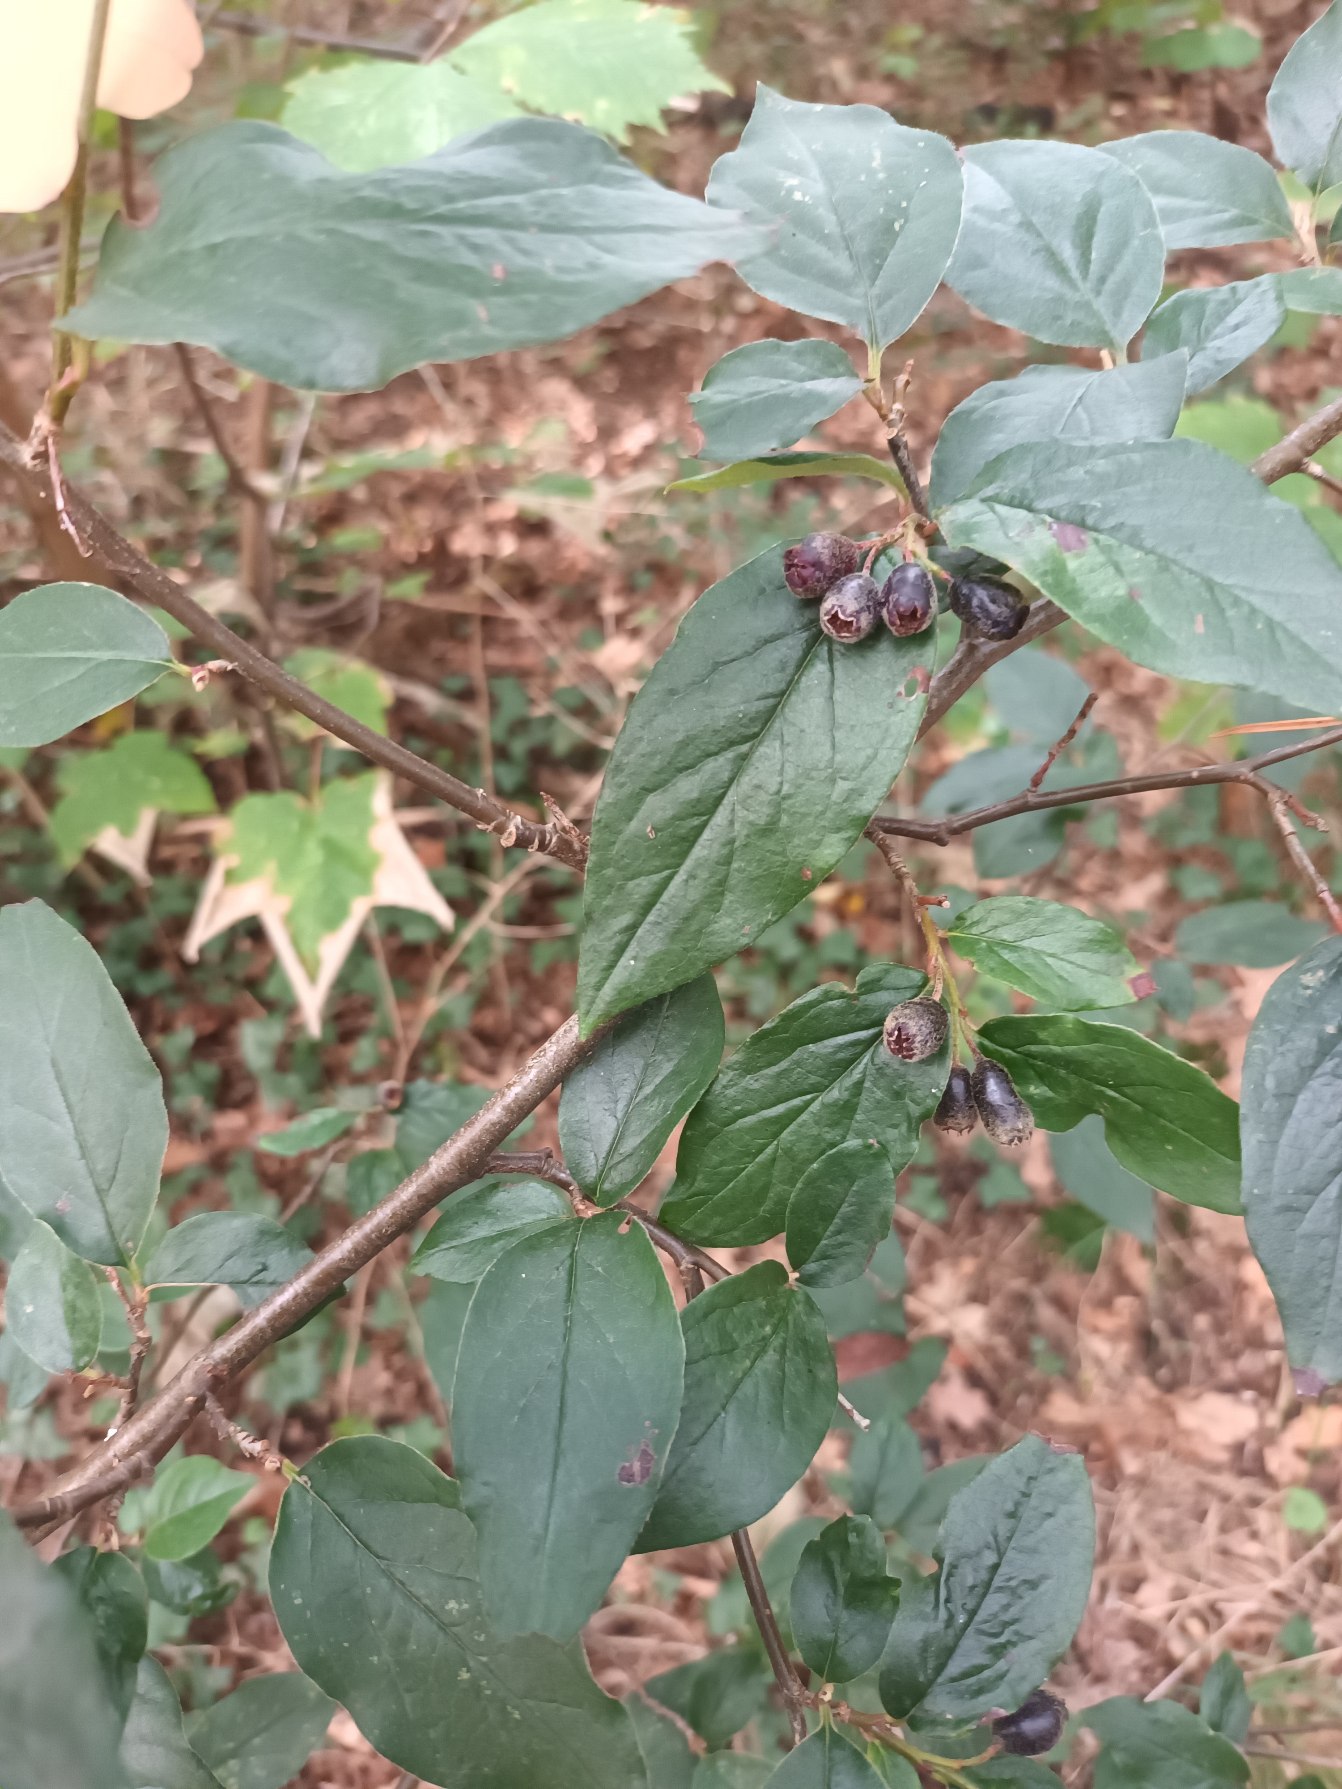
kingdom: Plantae
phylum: Tracheophyta
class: Magnoliopsida
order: Rosales
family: Rosaceae
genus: Cotoneaster
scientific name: Cotoneaster ambiguus
